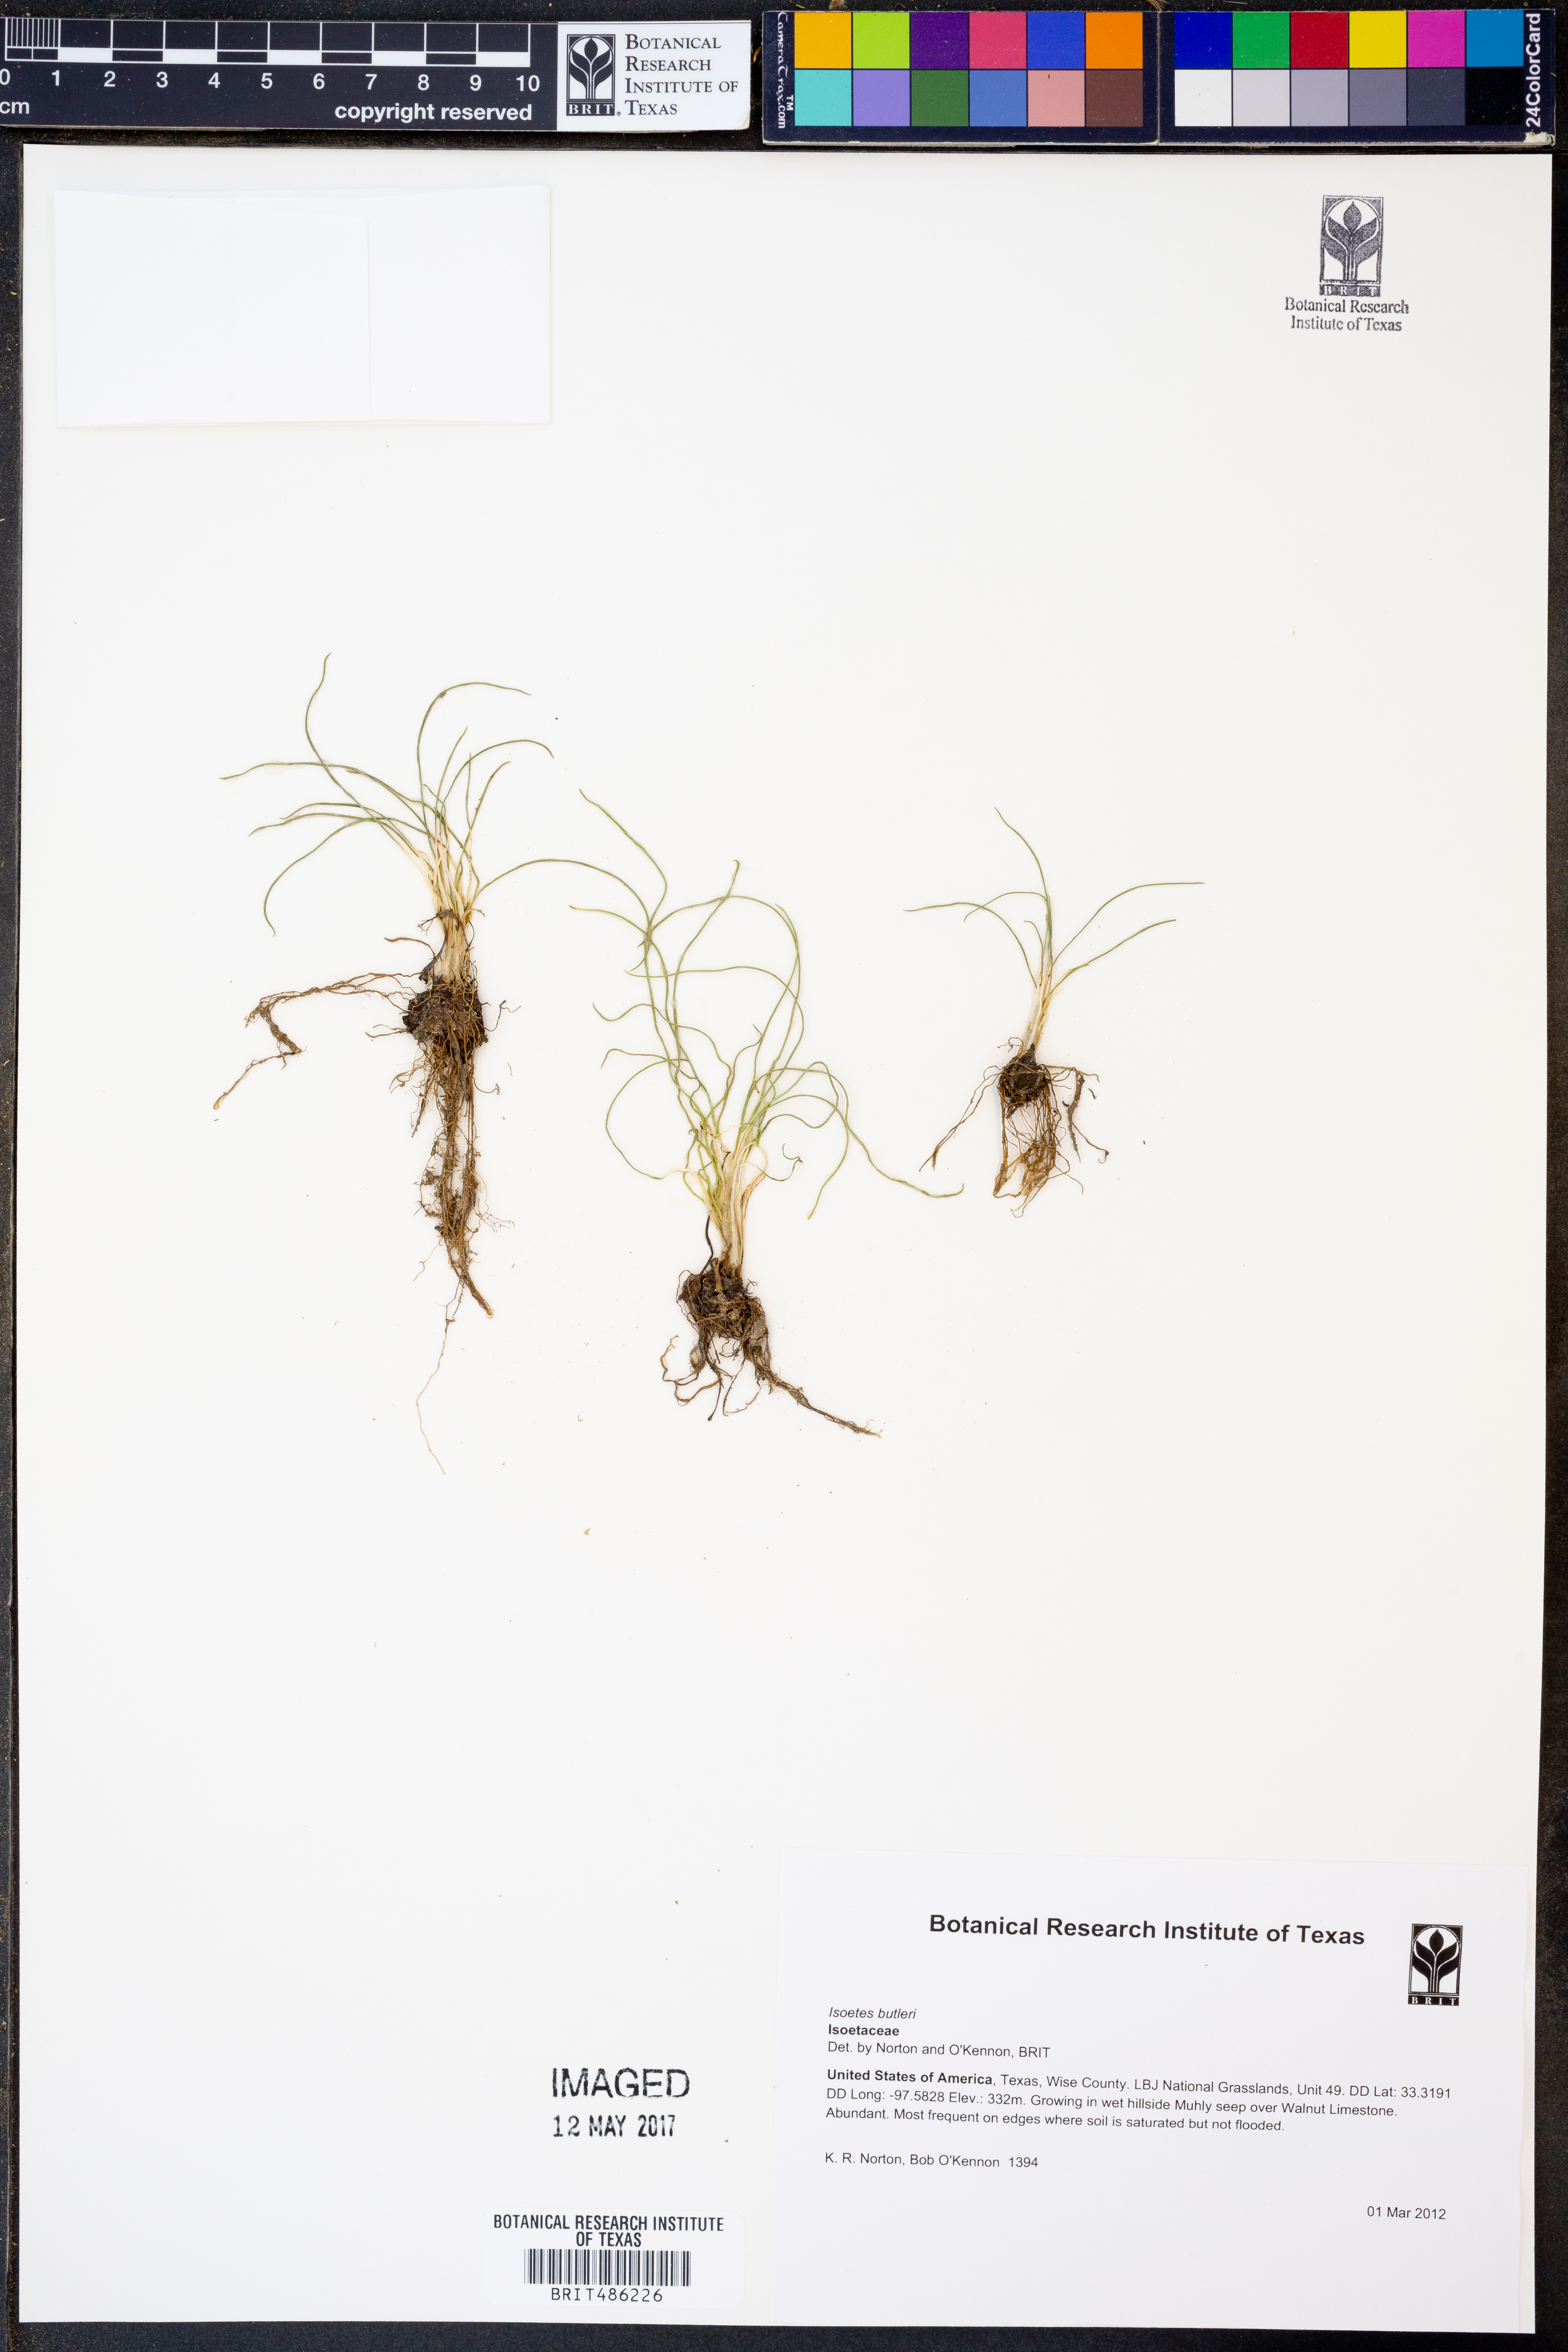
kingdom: Plantae
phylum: Tracheophyta
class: Lycopodiopsida
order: Isoetales
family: Isoetaceae
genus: Isoetes
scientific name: Isoetes butleri
